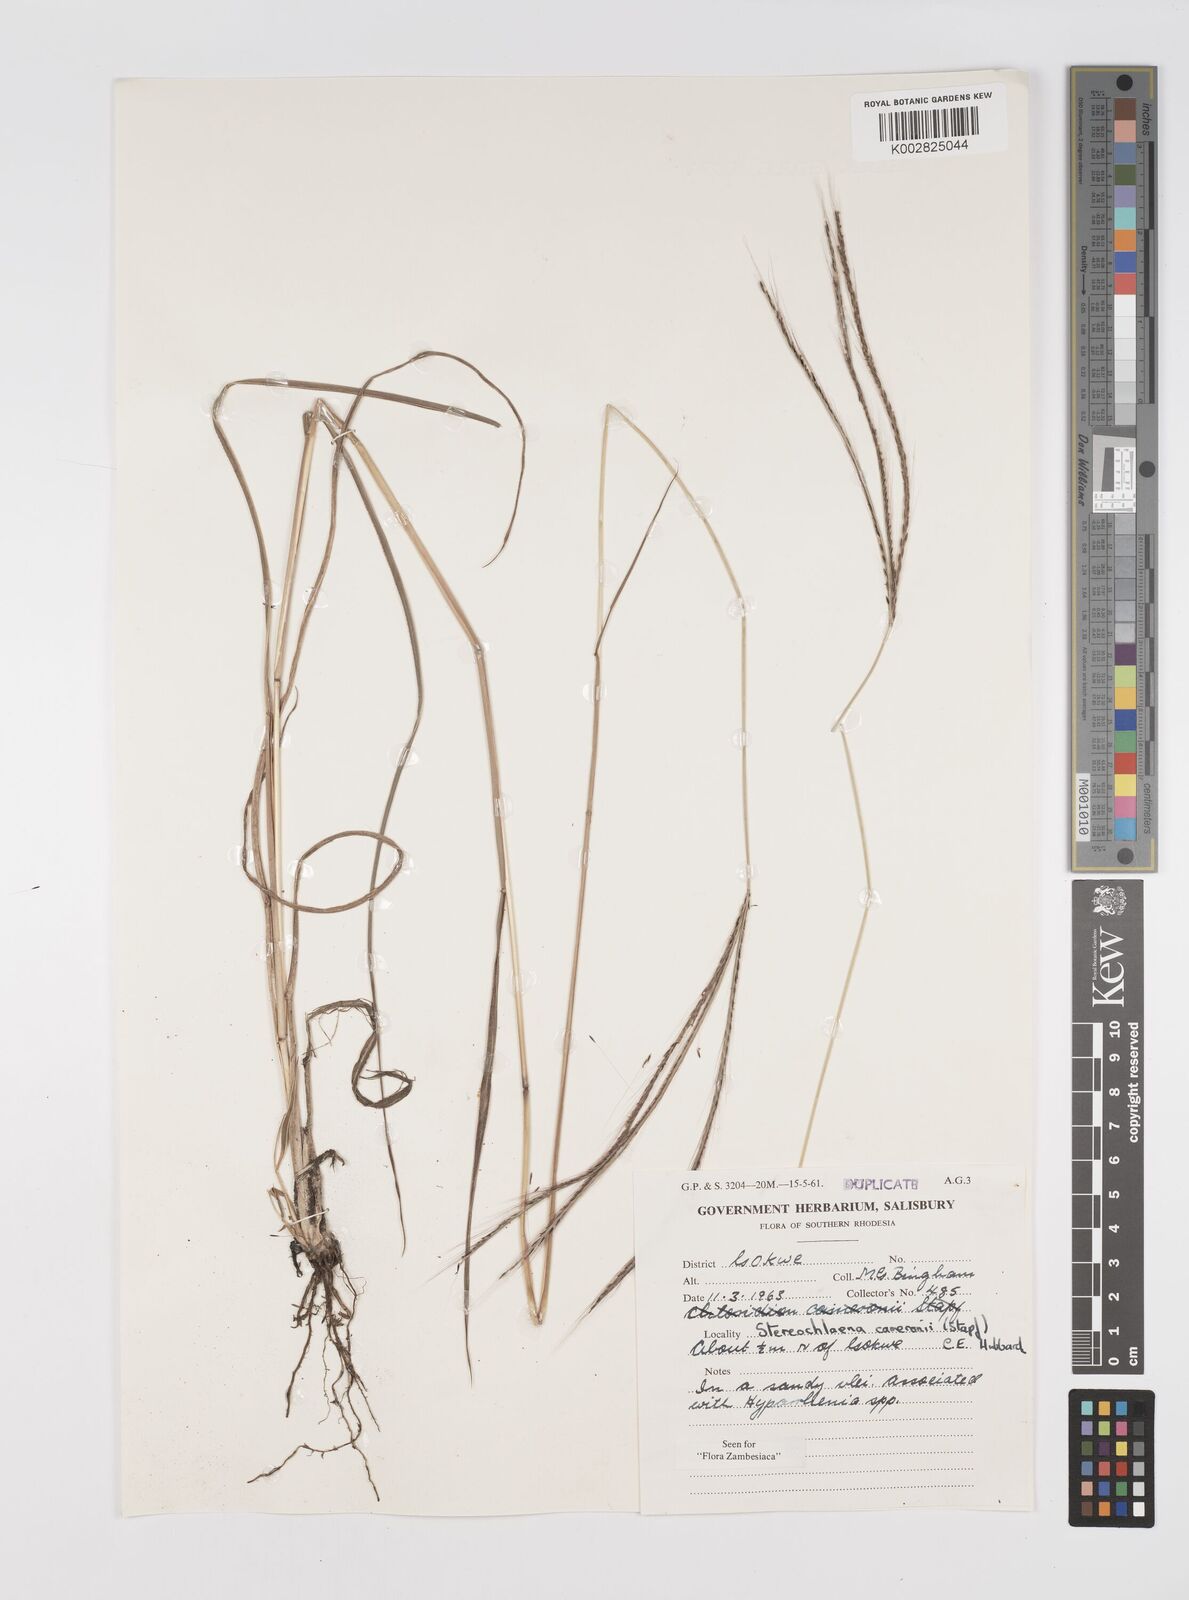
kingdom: Plantae
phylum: Tracheophyta
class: Liliopsida
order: Poales
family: Poaceae
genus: Stereochlaena
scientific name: Stereochlaena cameronii
